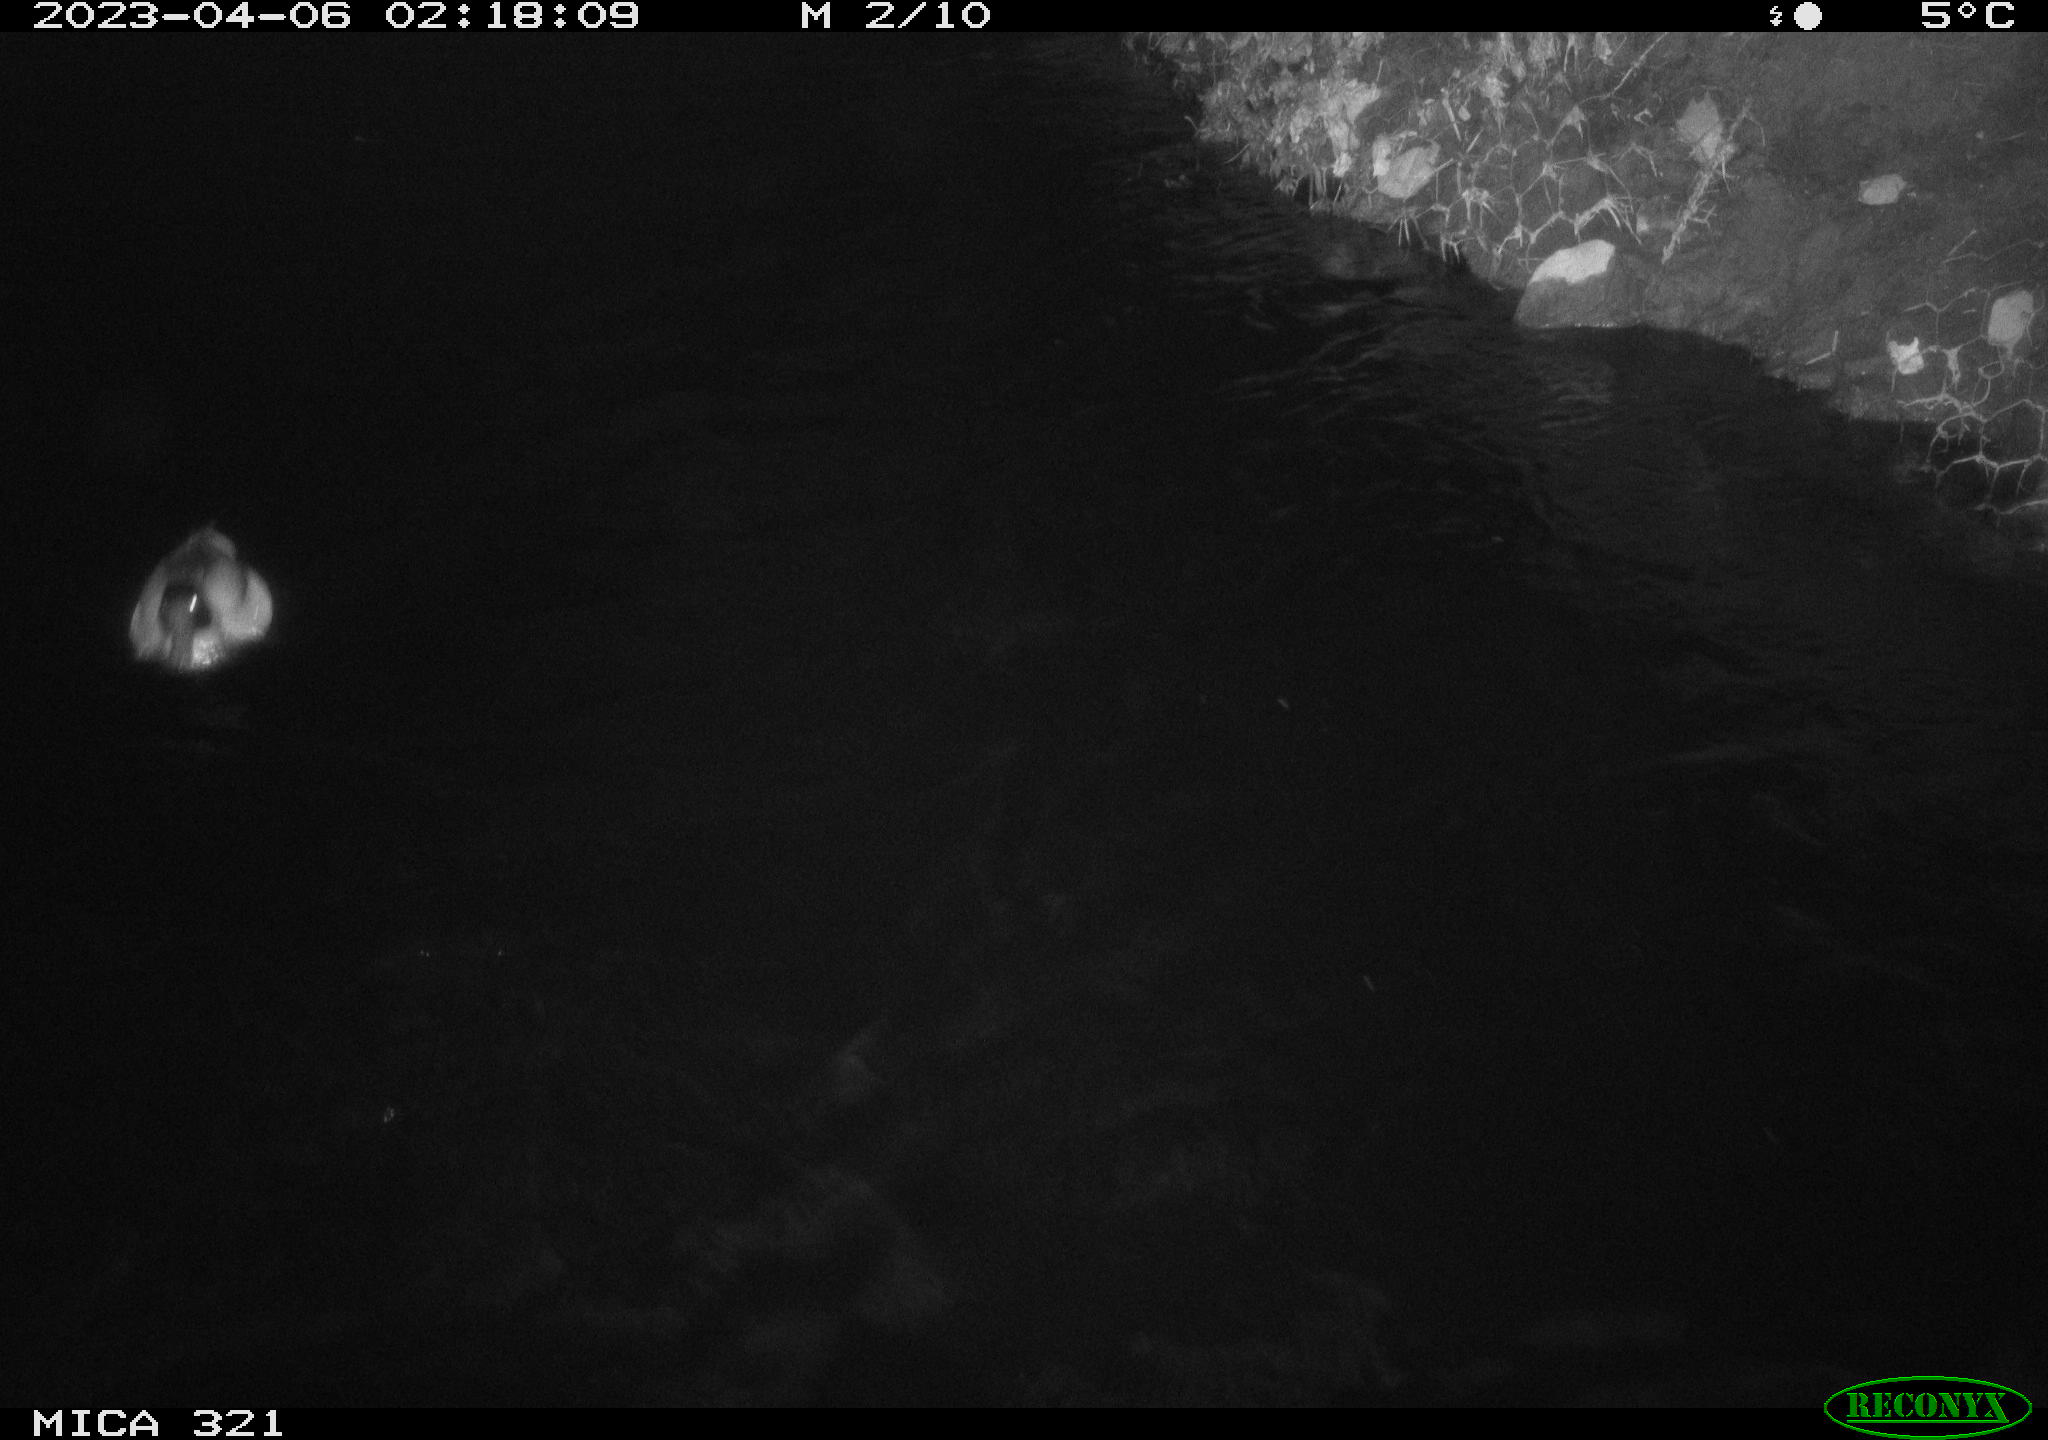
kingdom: Animalia
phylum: Chordata
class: Aves
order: Anseriformes
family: Anatidae
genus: Anas
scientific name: Anas
